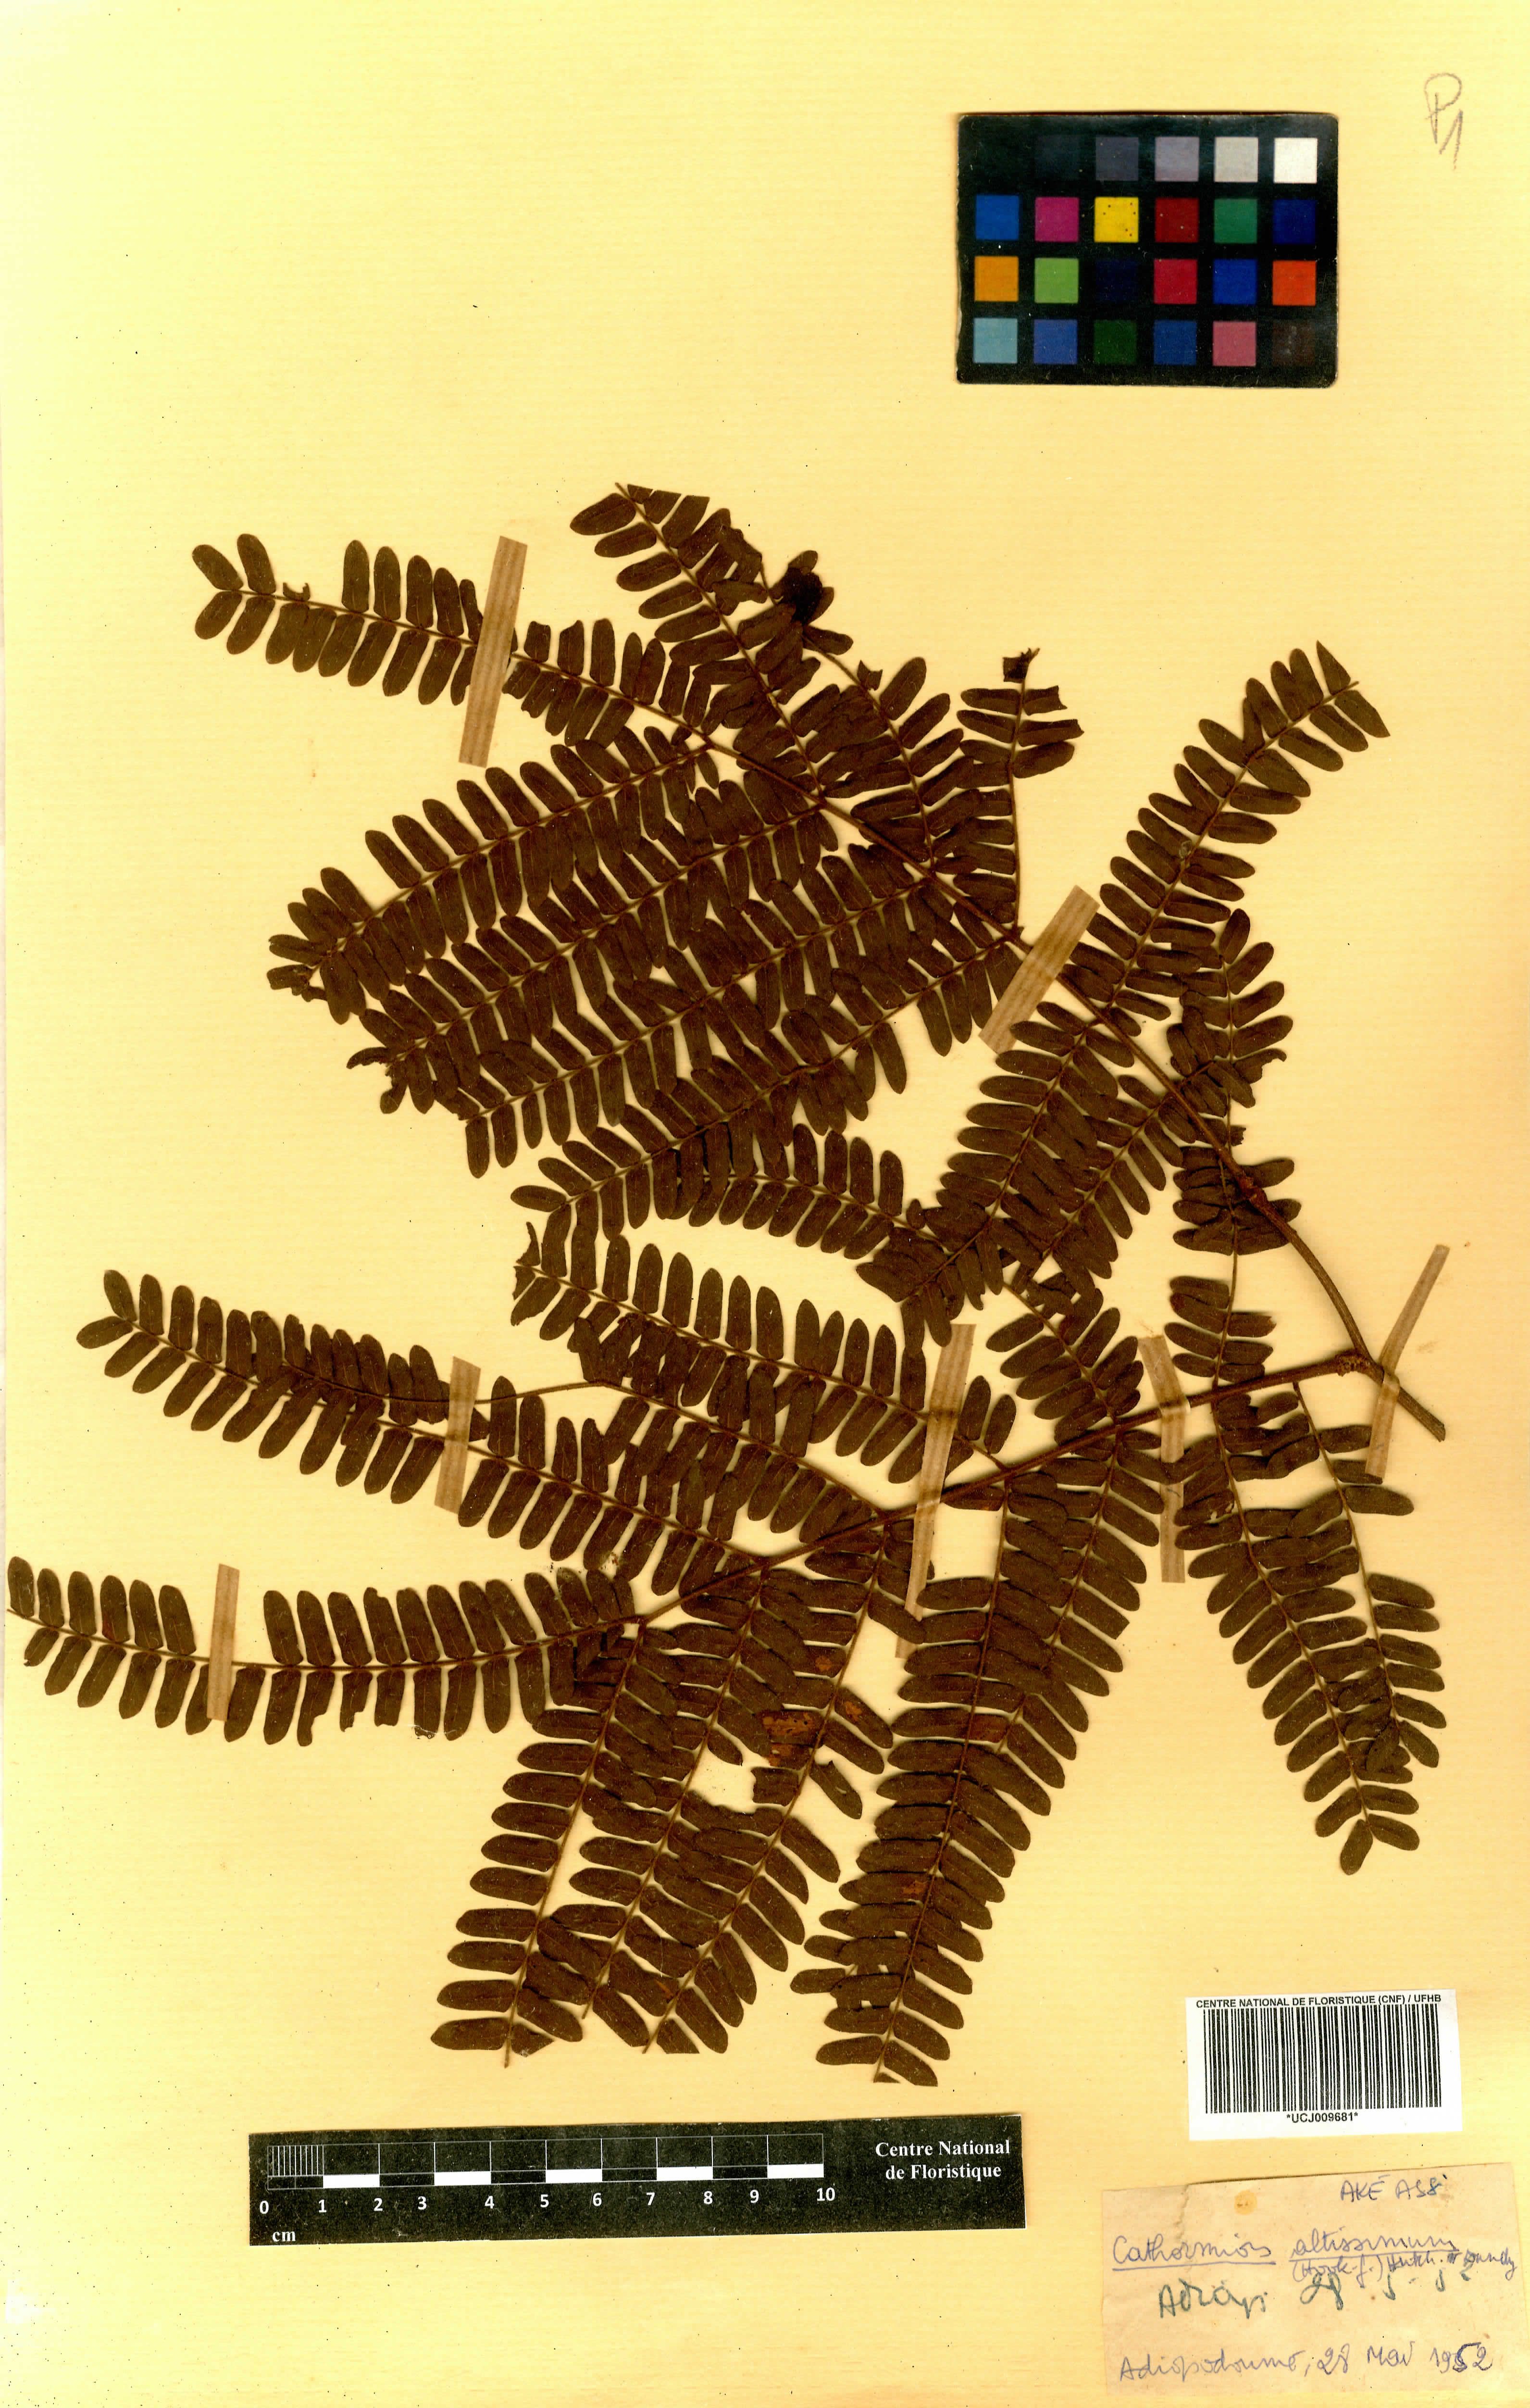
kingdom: Plantae
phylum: Tracheophyta
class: Magnoliopsida
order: Fabales
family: Fabaceae
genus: Albizia
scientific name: Albizia altissima
